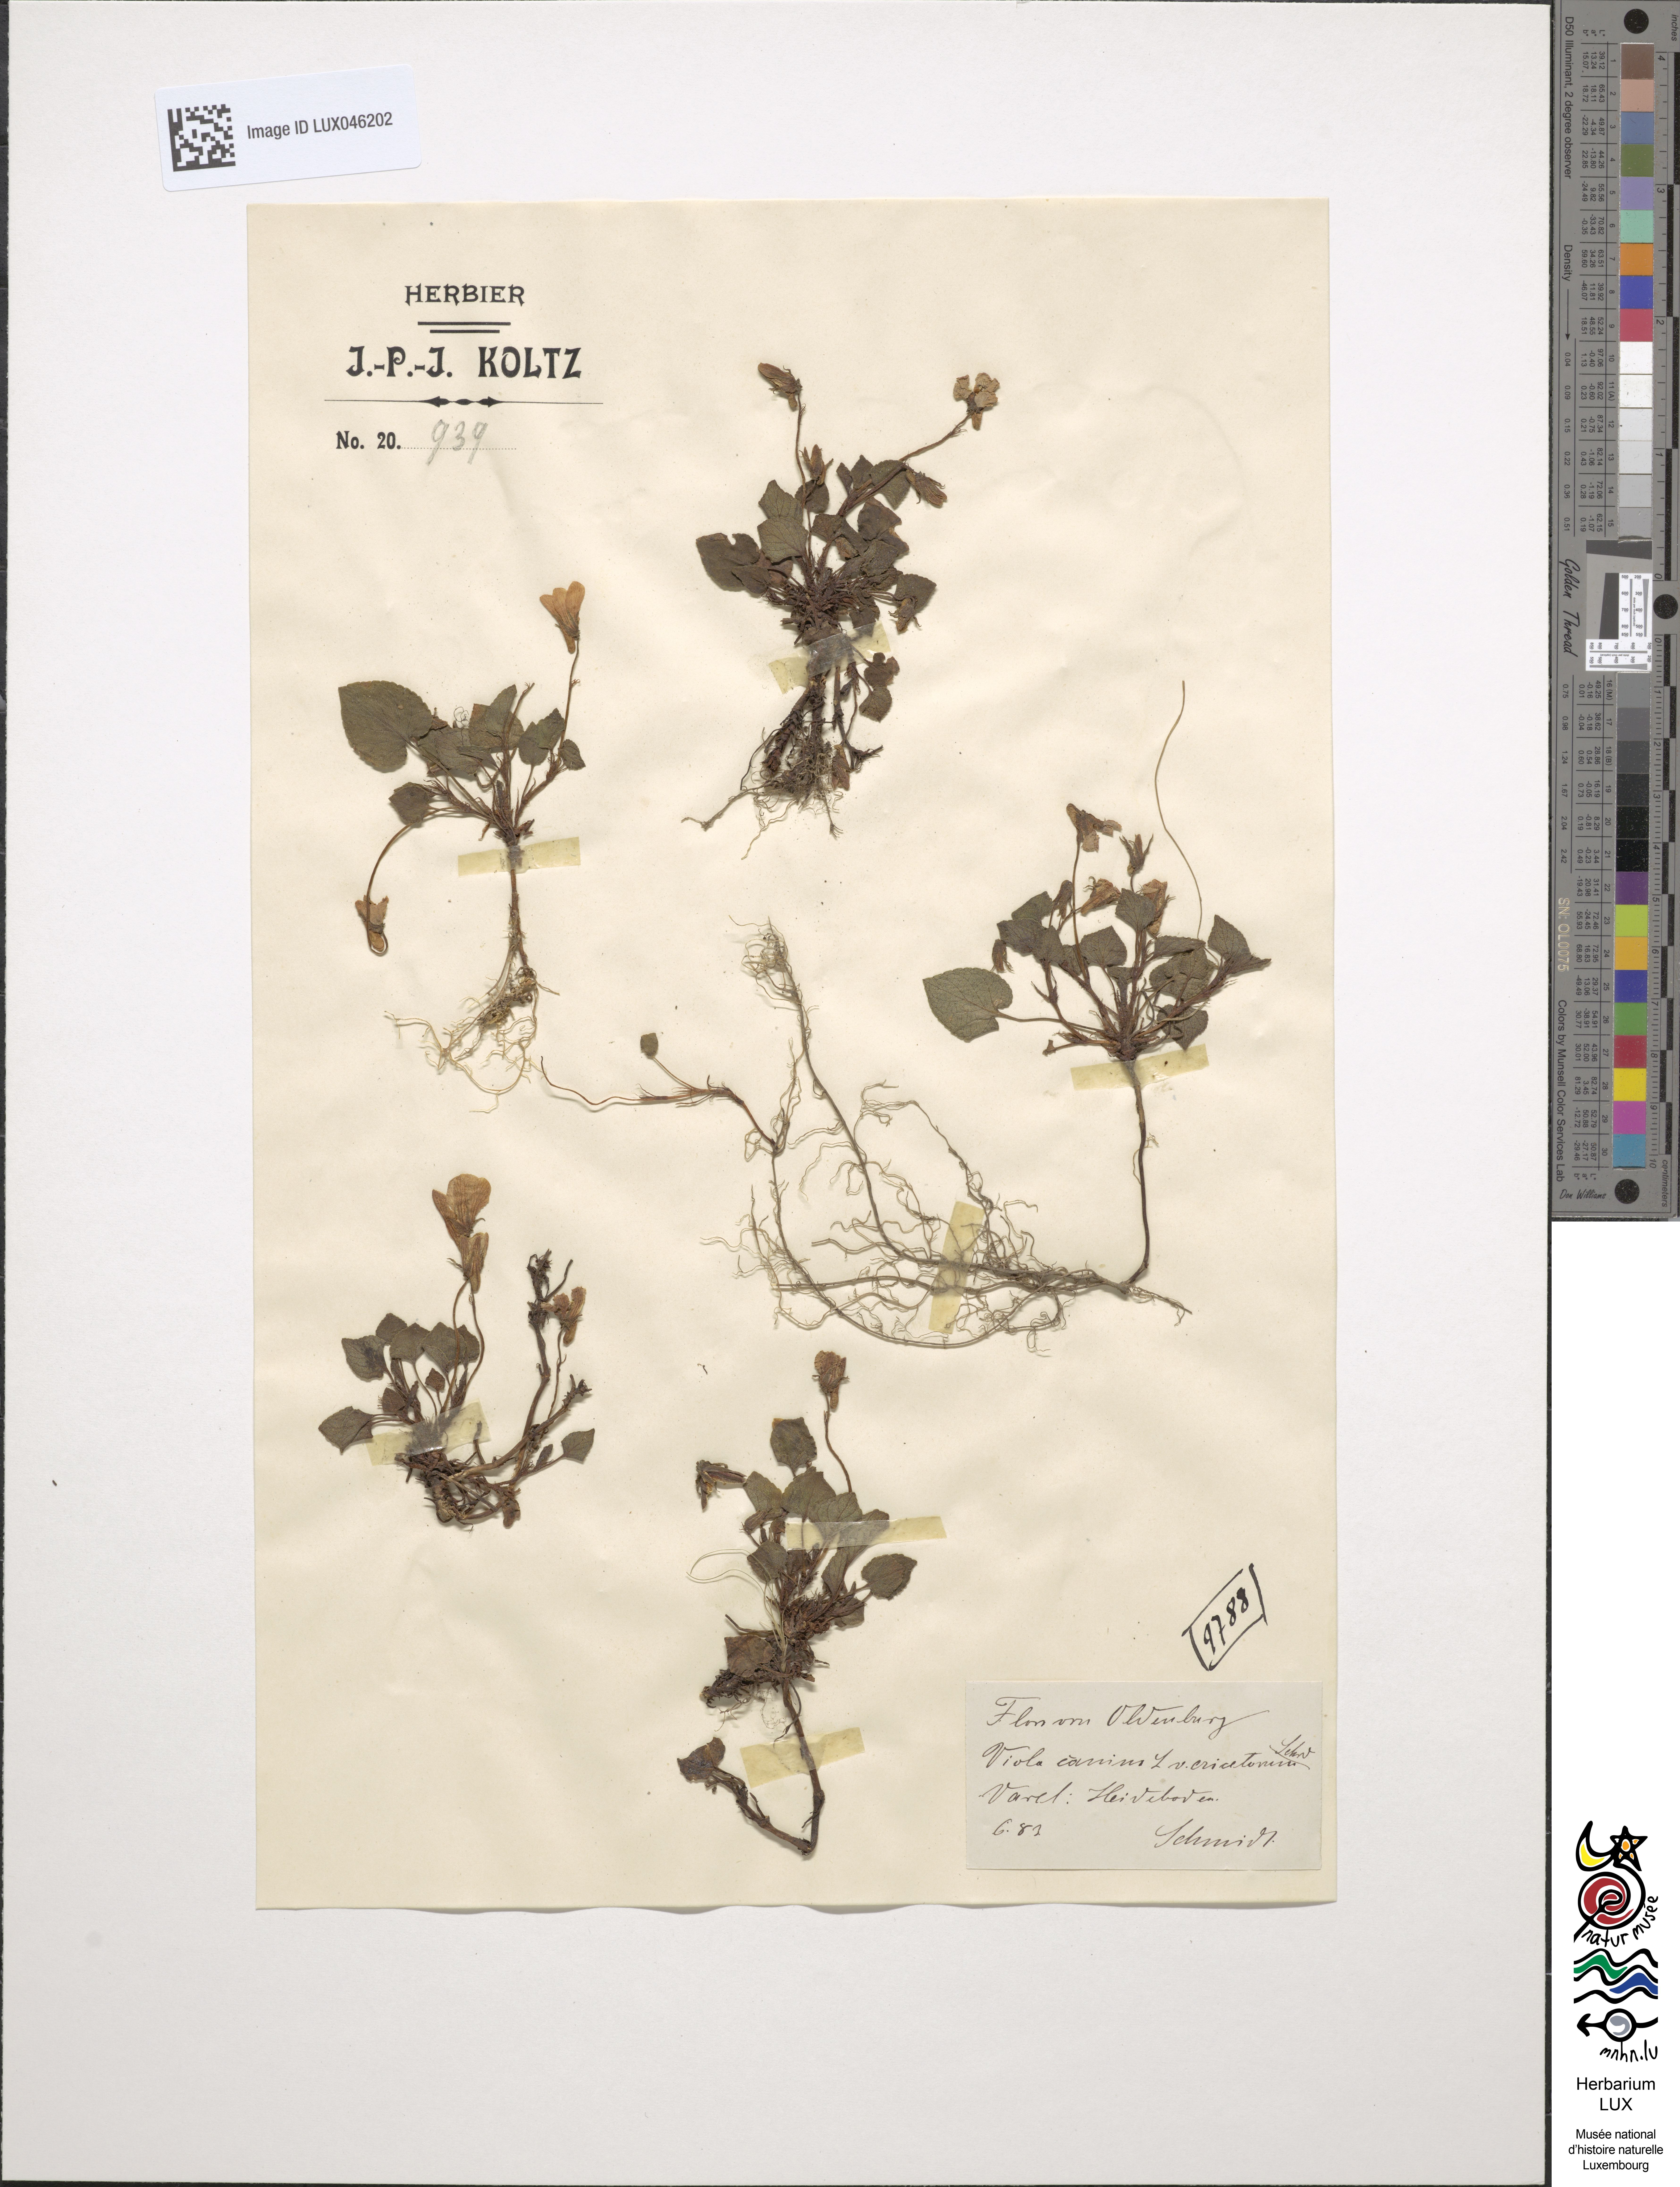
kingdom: Plantae
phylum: Tracheophyta
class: Magnoliopsida
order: Malpighiales
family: Violaceae
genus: Viola
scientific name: Viola canina
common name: Heath dog-violet
